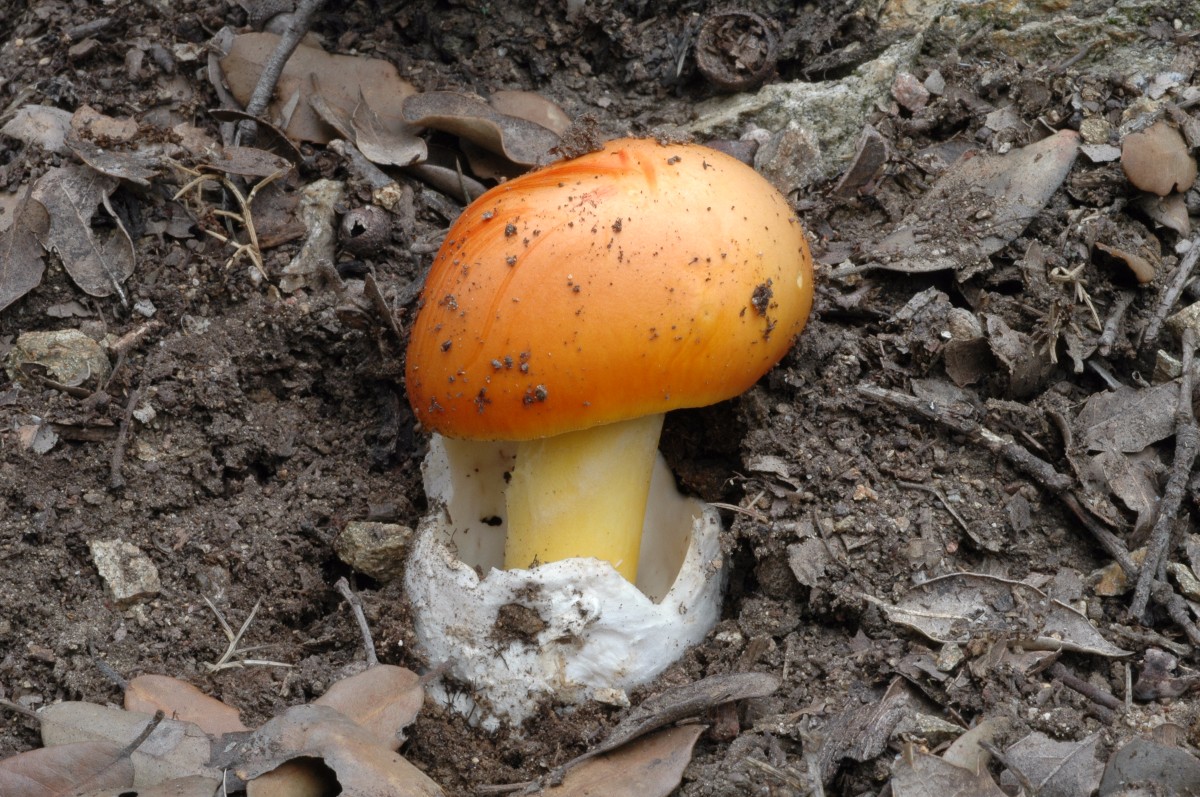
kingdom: Fungi
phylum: Basidiomycota
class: Agaricomycetes
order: Agaricales
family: Amanitaceae
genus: Amanita
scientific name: Amanita caesarea
